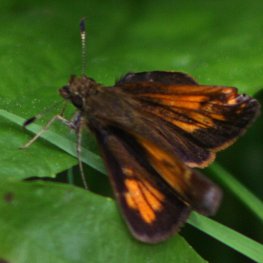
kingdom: Animalia
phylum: Arthropoda
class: Insecta
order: Lepidoptera
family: Hesperiidae
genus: Lon
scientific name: Lon hobomok
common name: Hobomok Skipper
